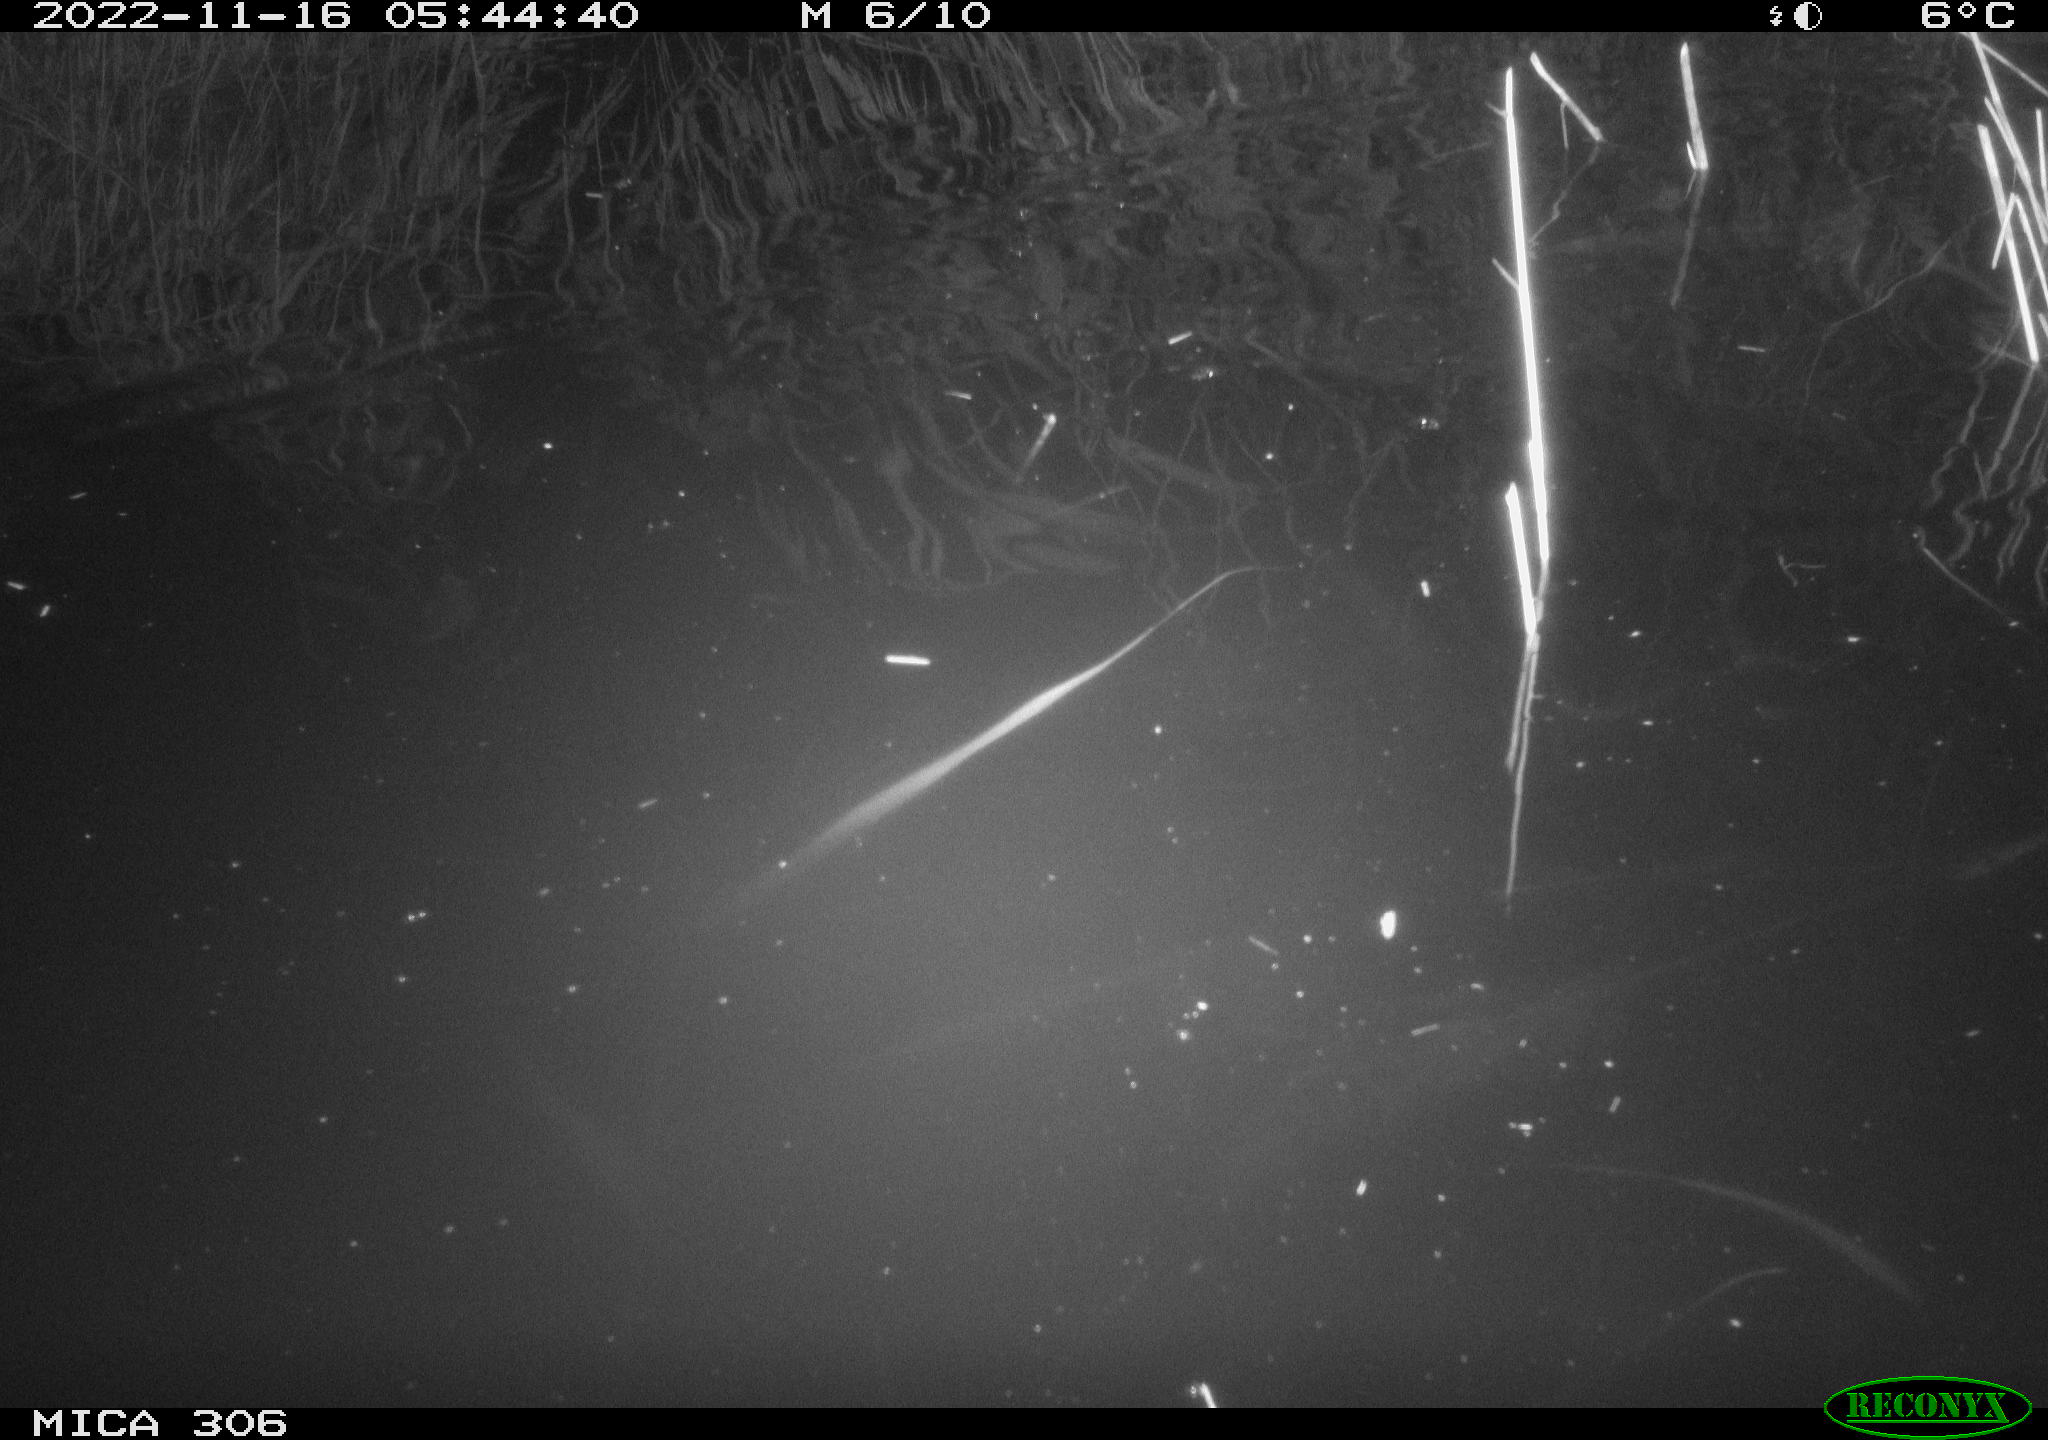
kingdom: Animalia
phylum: Chordata
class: Mammalia
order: Rodentia
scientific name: Rodentia
